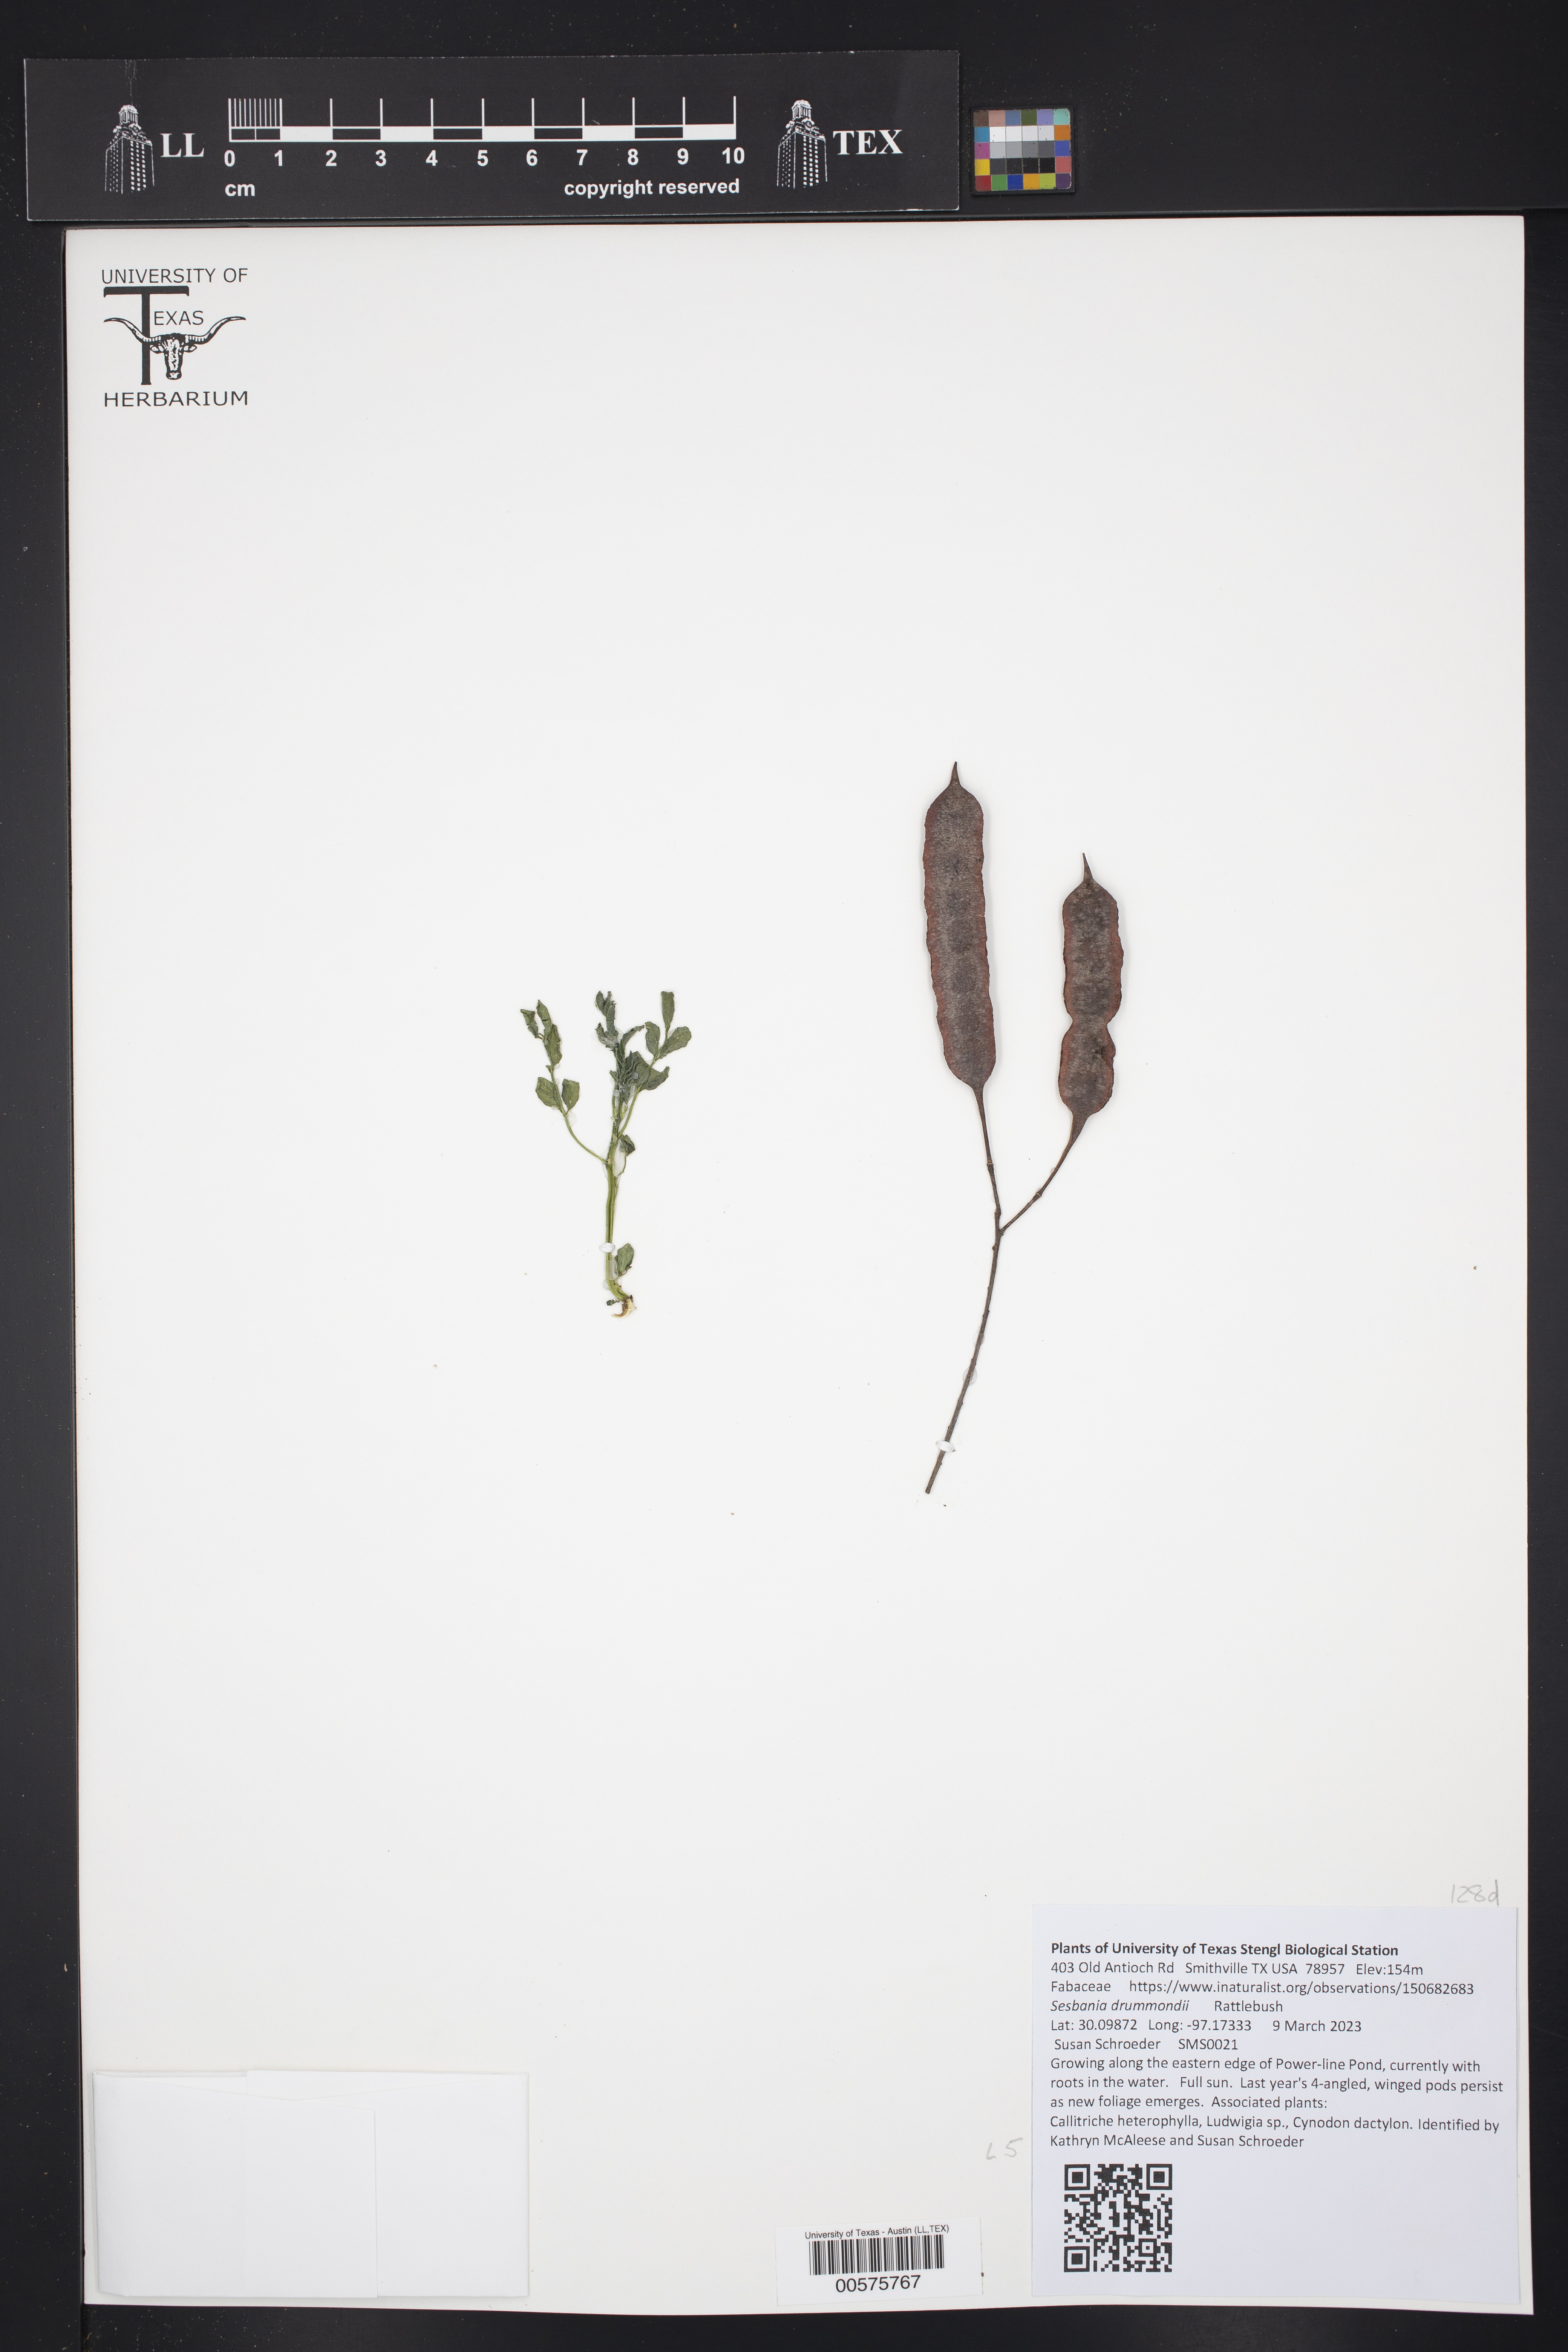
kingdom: Plantae
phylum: Tracheophyta
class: Magnoliopsida
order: Fabales
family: Fabaceae
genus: Sesbania
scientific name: Sesbania drummondii
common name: Poison-bean
